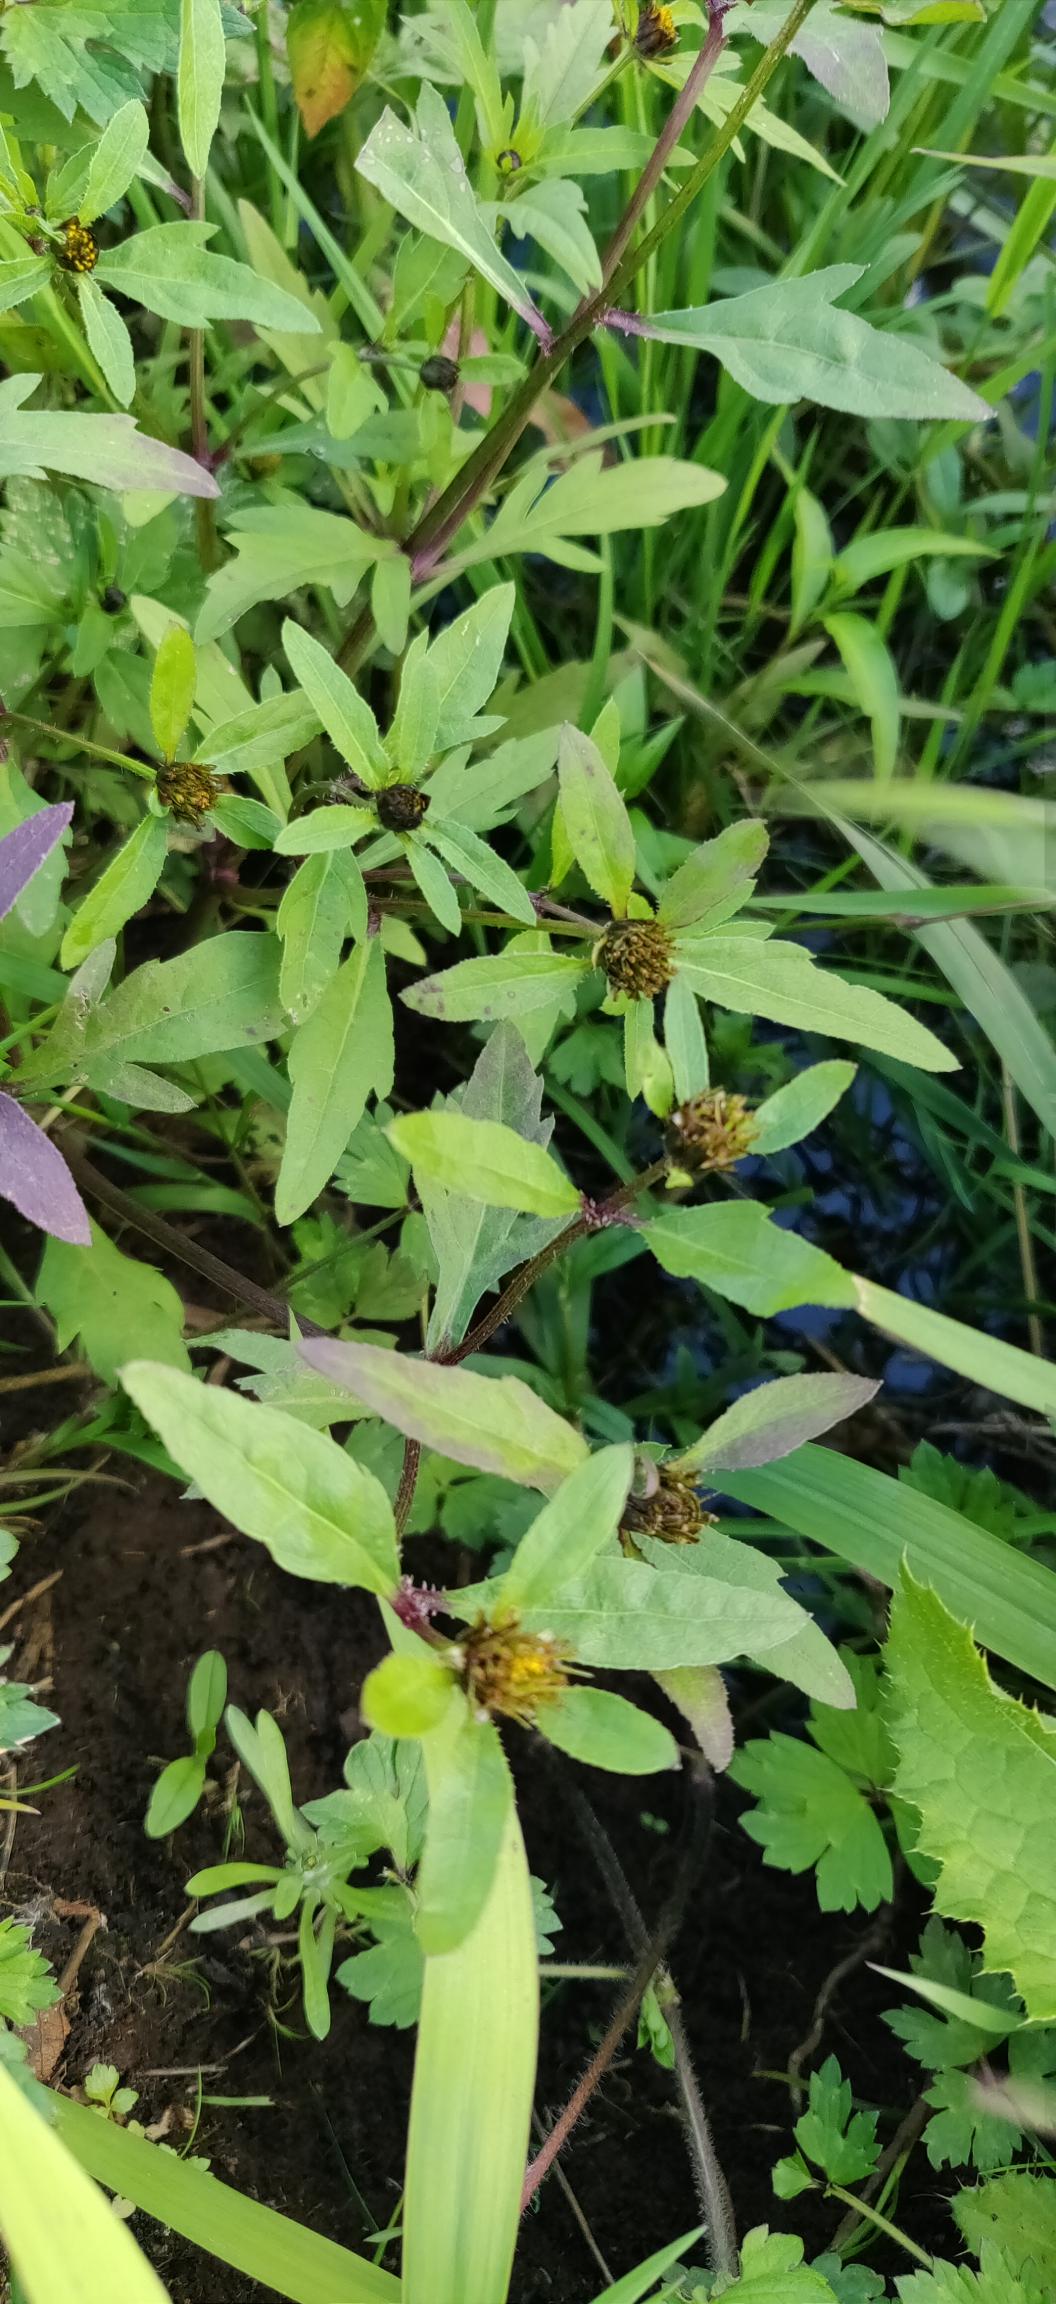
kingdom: Plantae
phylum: Tracheophyta
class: Magnoliopsida
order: Asterales
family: Asteraceae
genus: Bidens
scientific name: Bidens tripartita
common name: Fliget brøndsel
